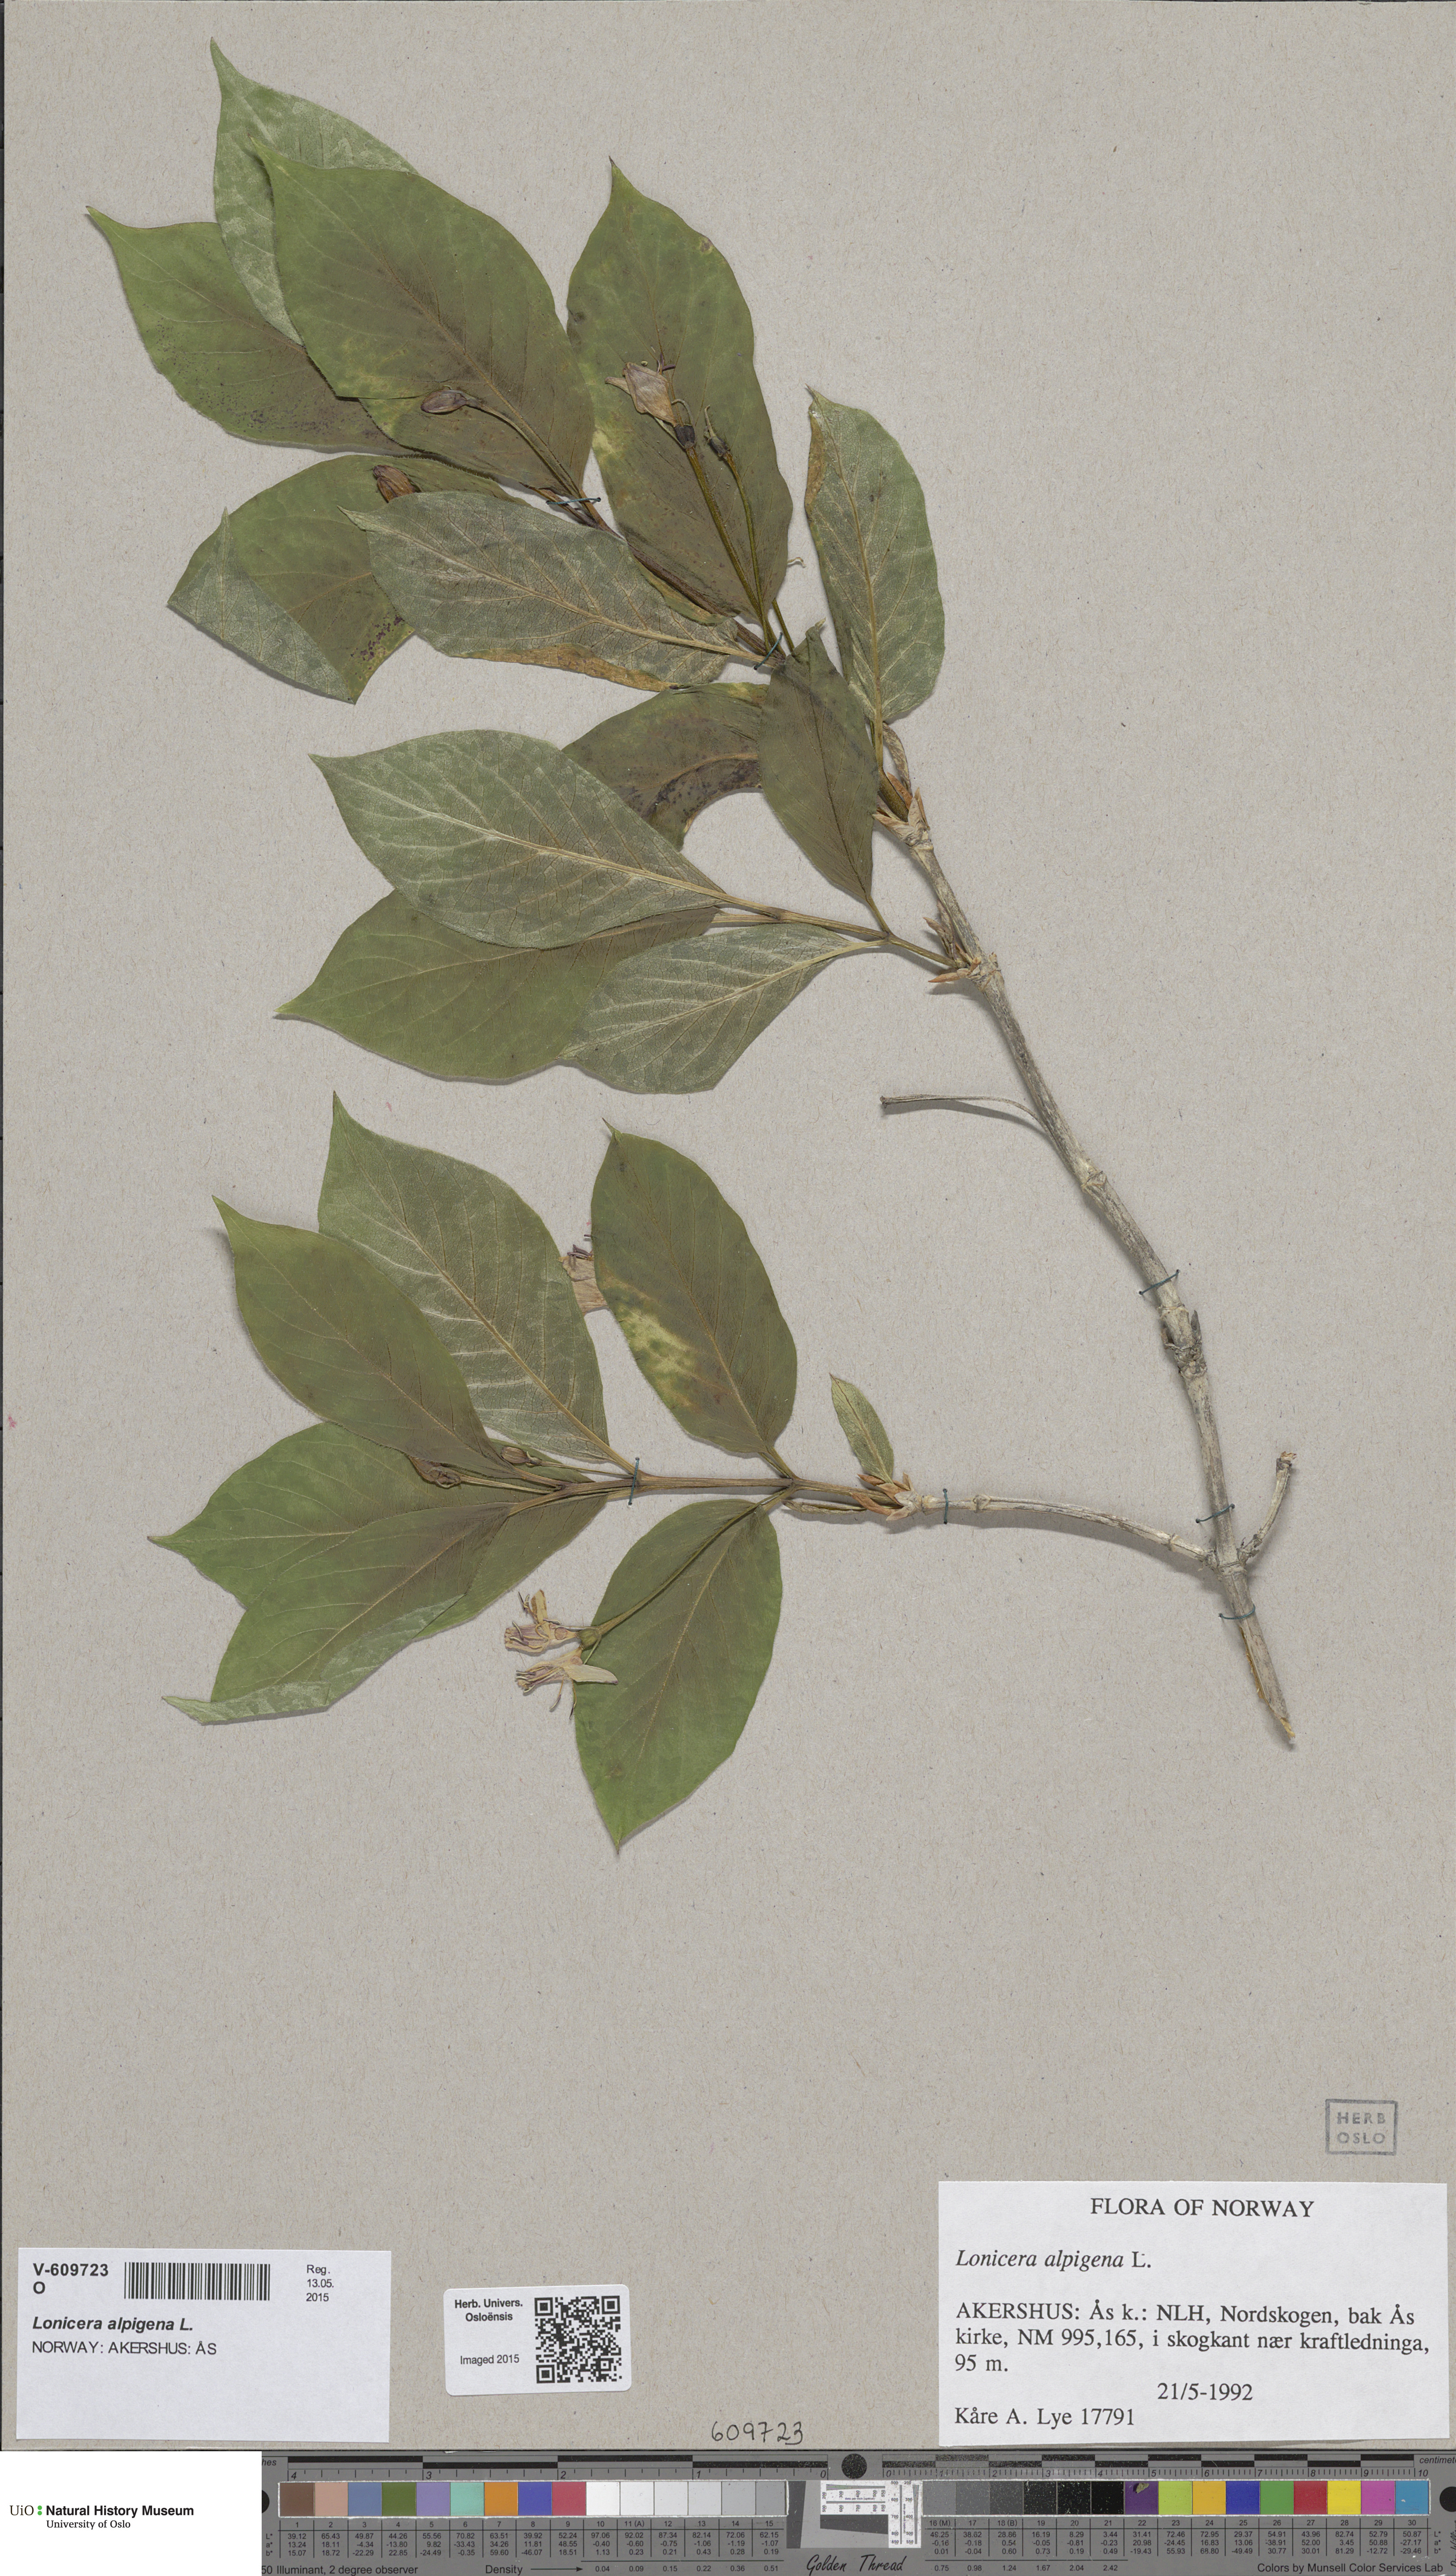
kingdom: Plantae
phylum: Tracheophyta
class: Magnoliopsida
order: Dipsacales
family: Caprifoliaceae
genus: Lonicera
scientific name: Lonicera alpigena
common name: Alpine honeysuckle
